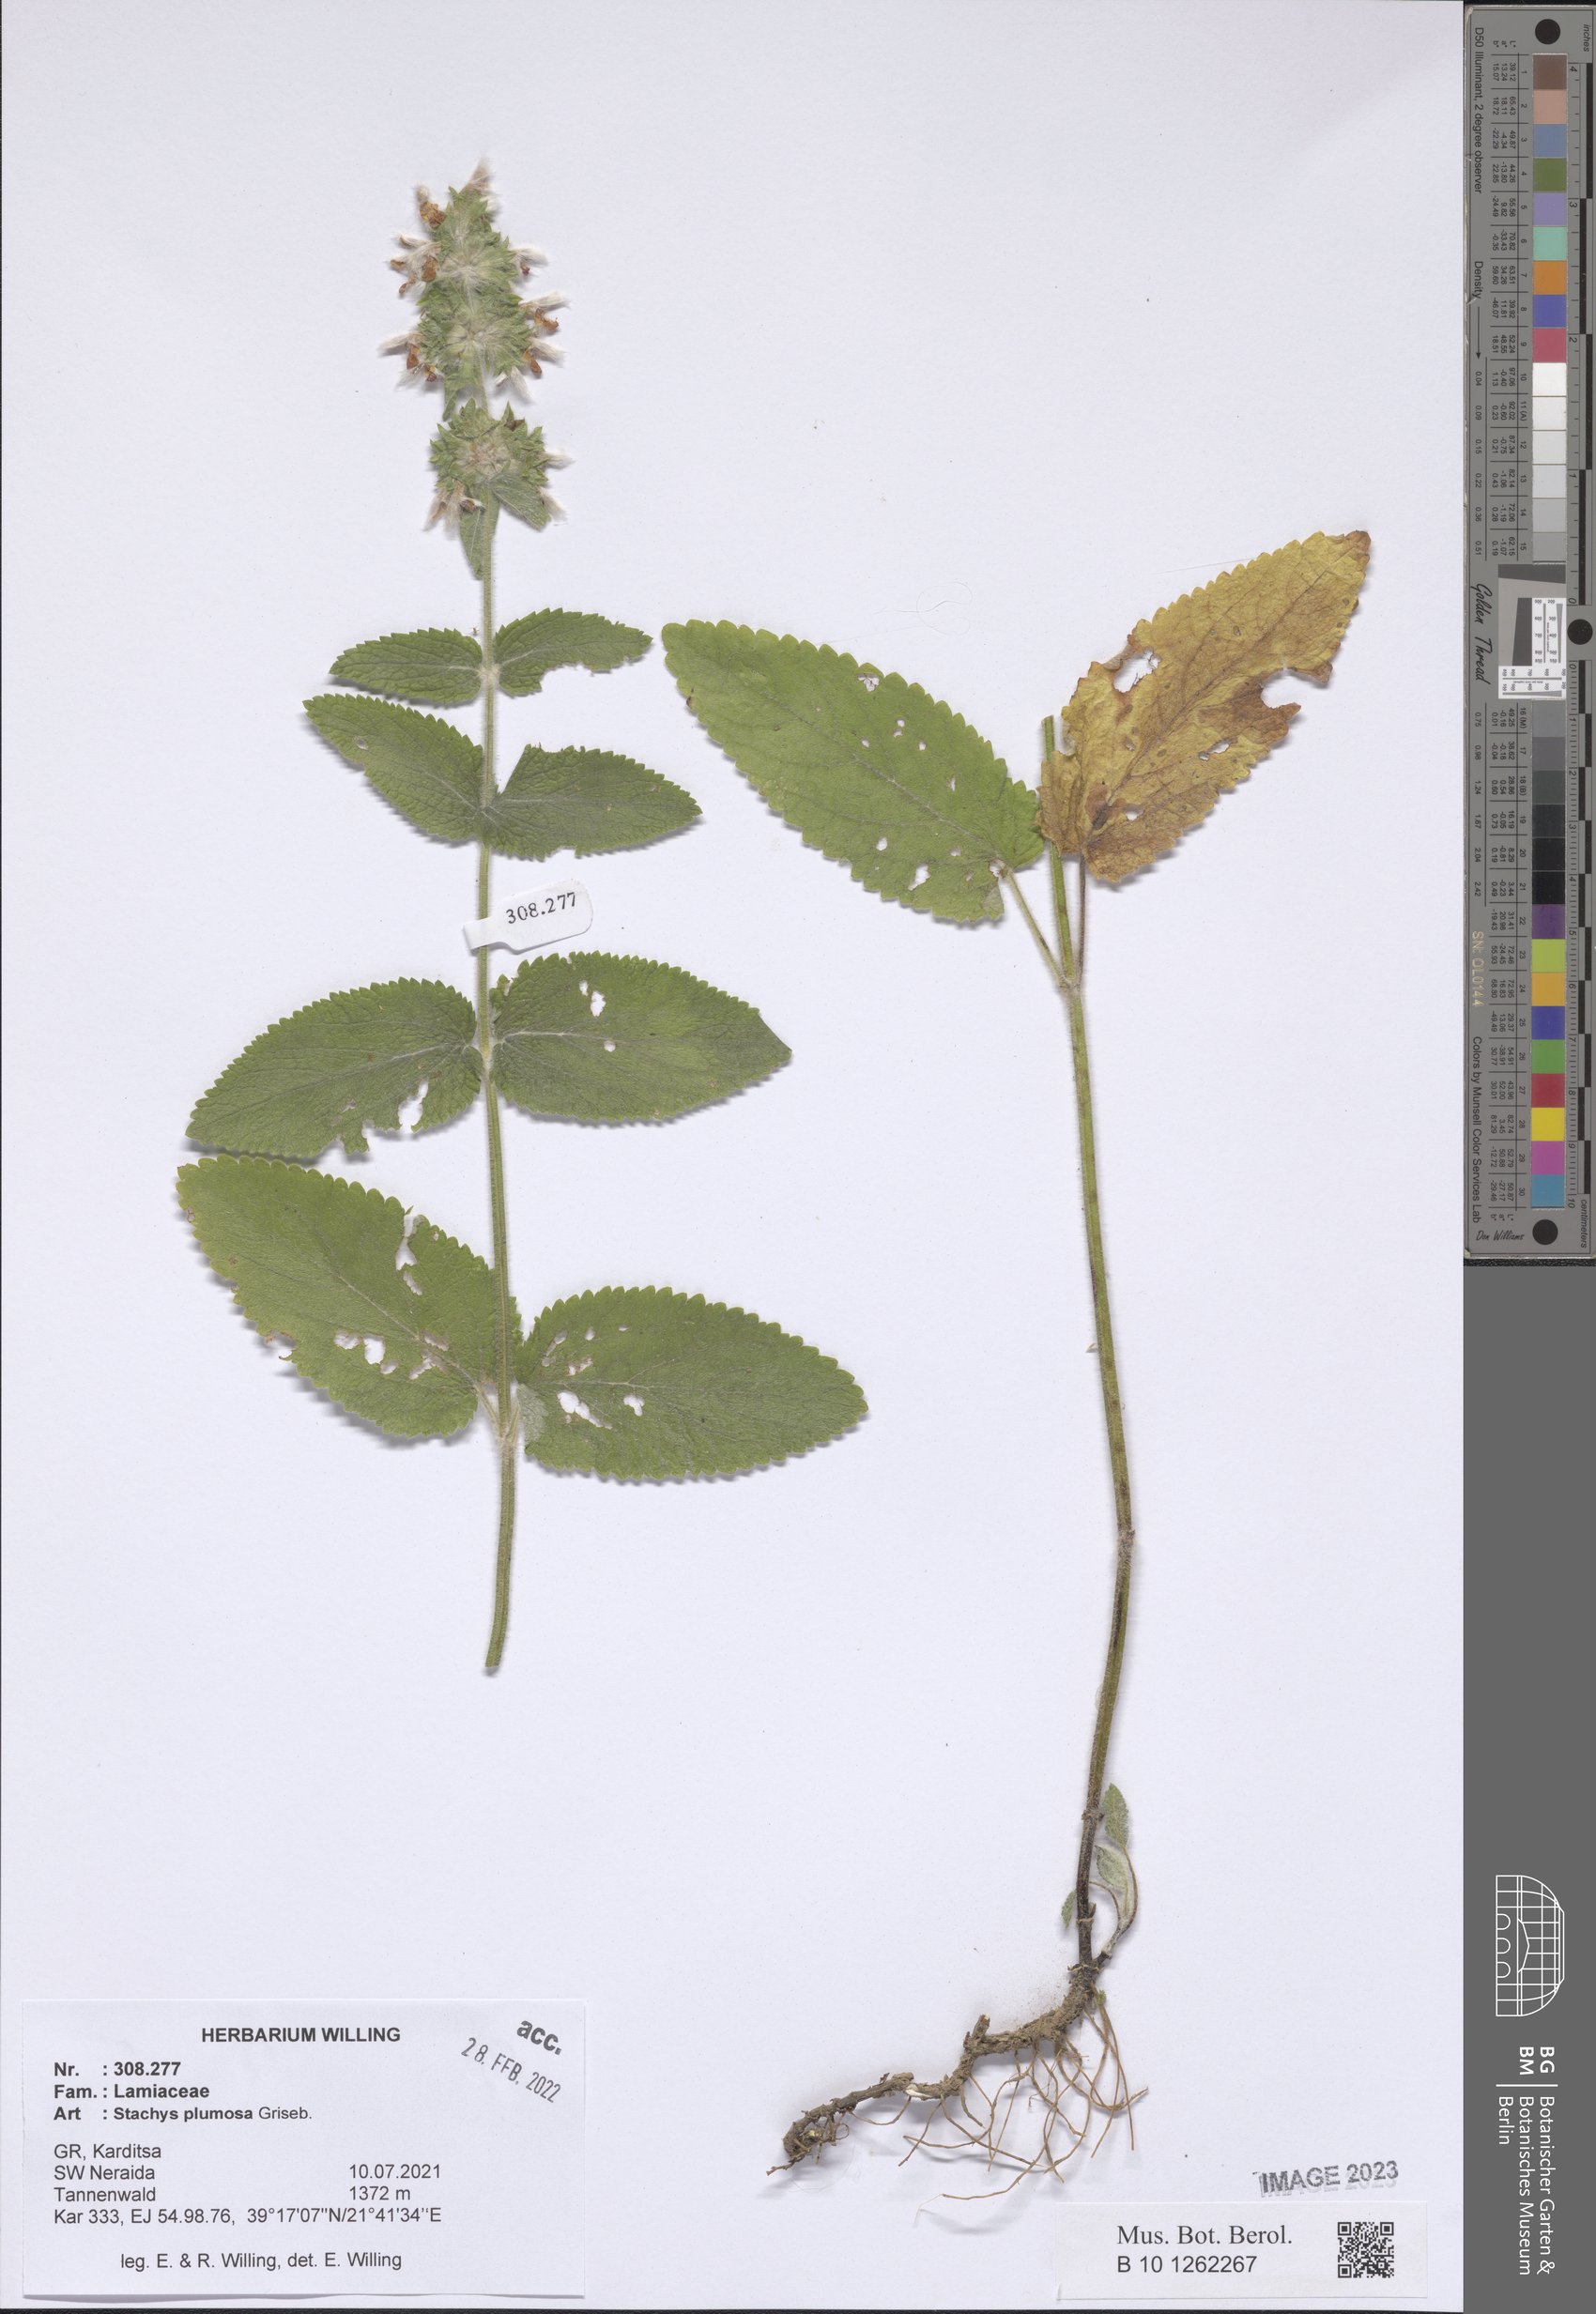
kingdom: Plantae
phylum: Tracheophyta
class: Magnoliopsida
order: Lamiales
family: Lamiaceae
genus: Stachys
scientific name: Stachys plumosa
